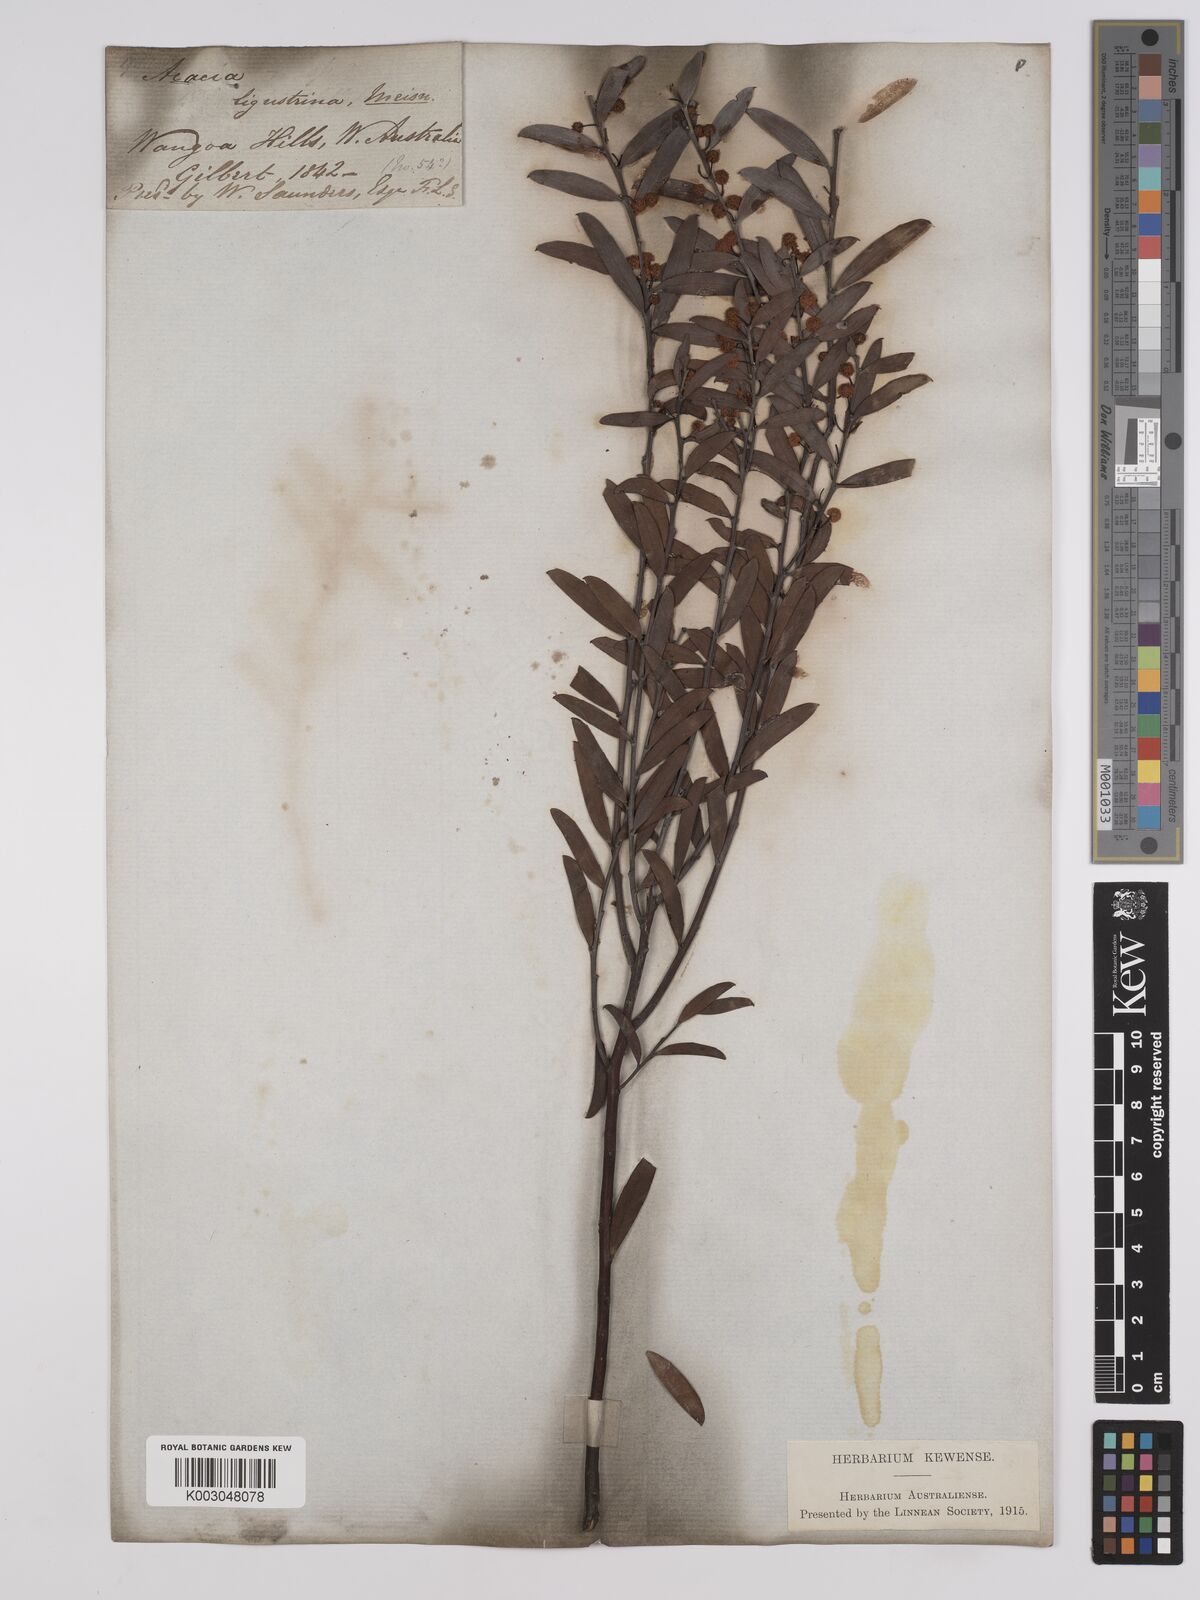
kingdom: Plantae
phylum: Tracheophyta
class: Magnoliopsida
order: Fabales
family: Fabaceae
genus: Acacia
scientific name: Acacia ligustrina
